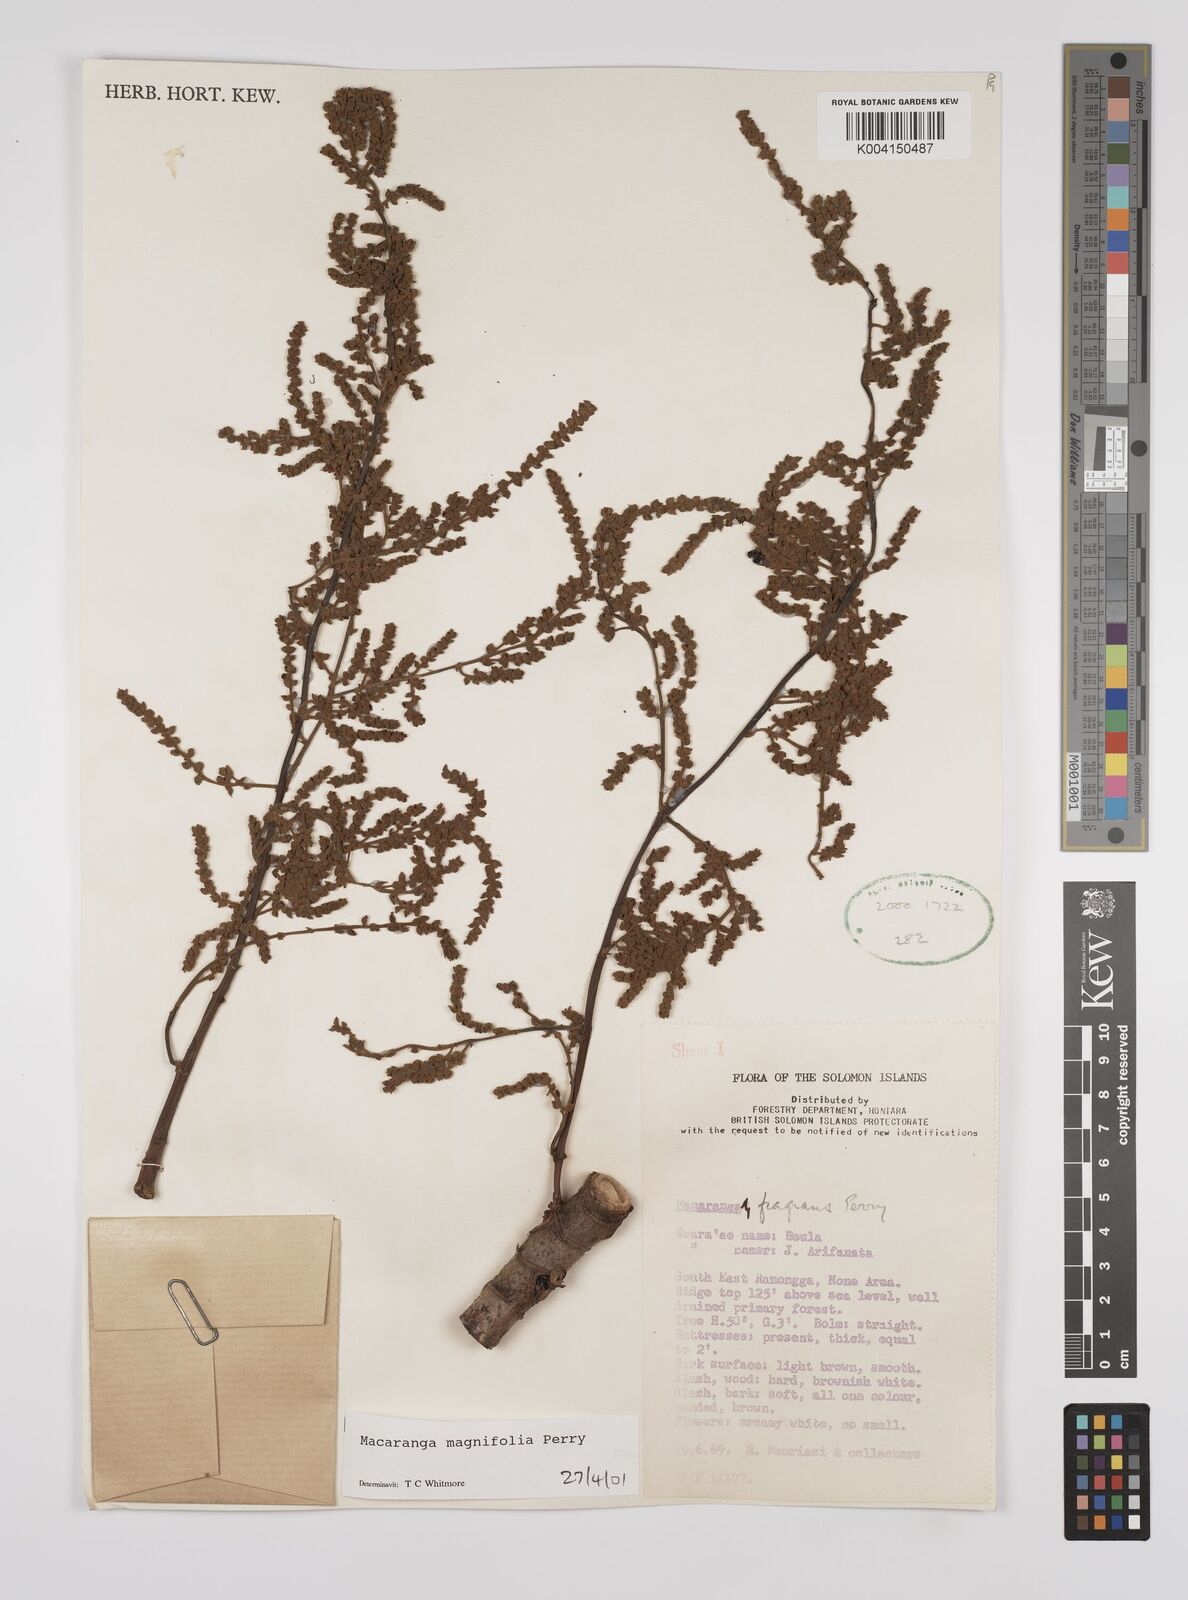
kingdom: Plantae
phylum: Tracheophyta
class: Magnoliopsida
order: Malpighiales
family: Euphorbiaceae
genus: Macaranga
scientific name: Macaranga magnifolia
